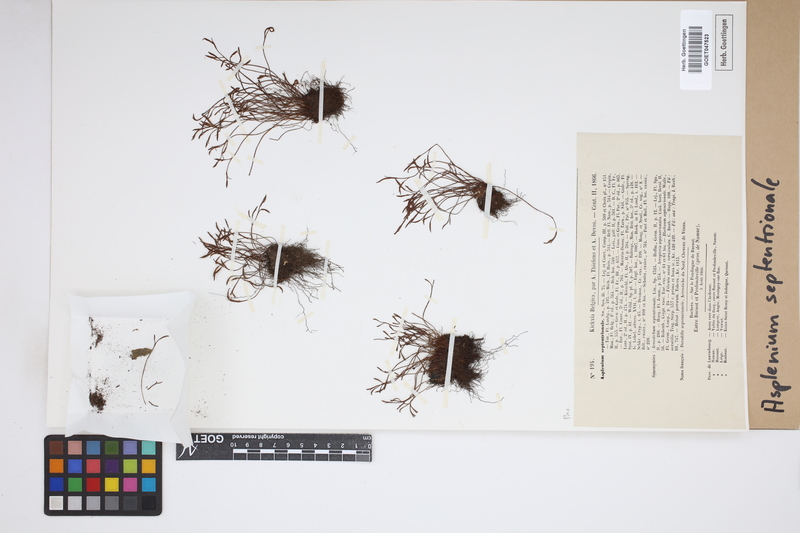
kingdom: Plantae
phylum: Tracheophyta
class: Polypodiopsida
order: Polypodiales
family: Aspleniaceae
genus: Asplenium
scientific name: Asplenium septentrionale
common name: Forked spleenwort
